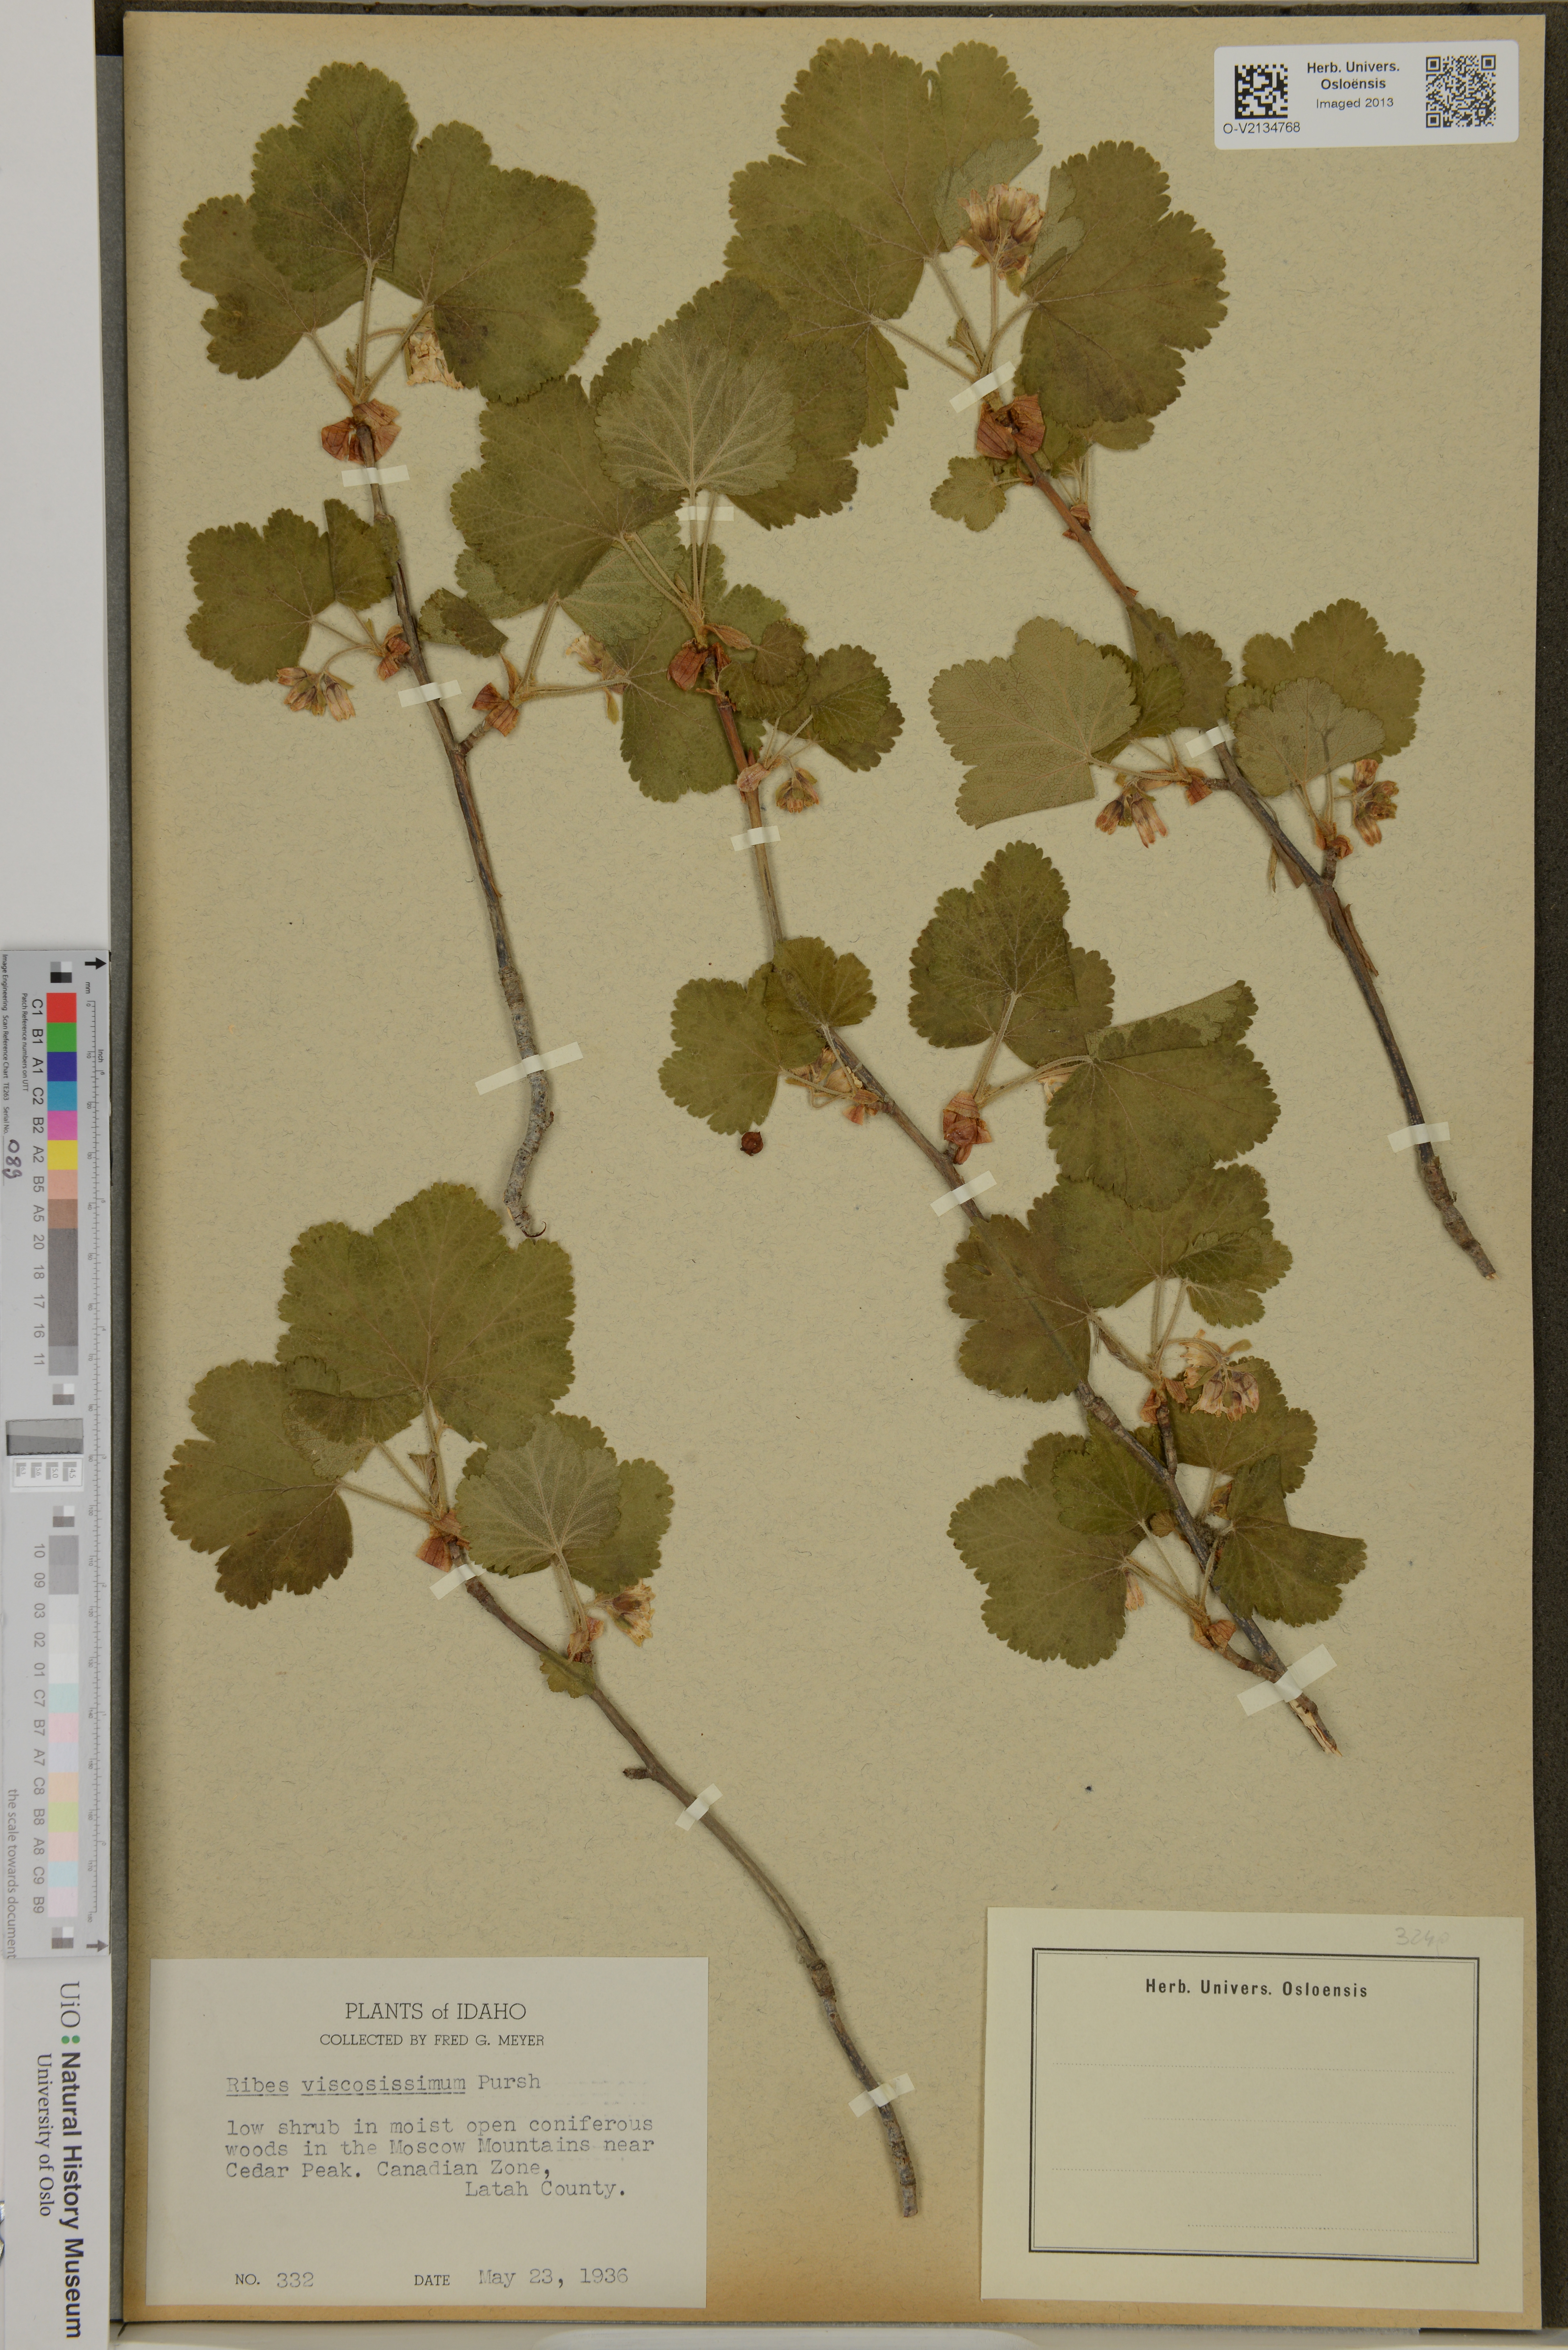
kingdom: Plantae
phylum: Tracheophyta
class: Magnoliopsida
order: Saxifragales
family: Grossulariaceae
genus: Ribes
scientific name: Ribes viscosissimum
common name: Sticky currant
